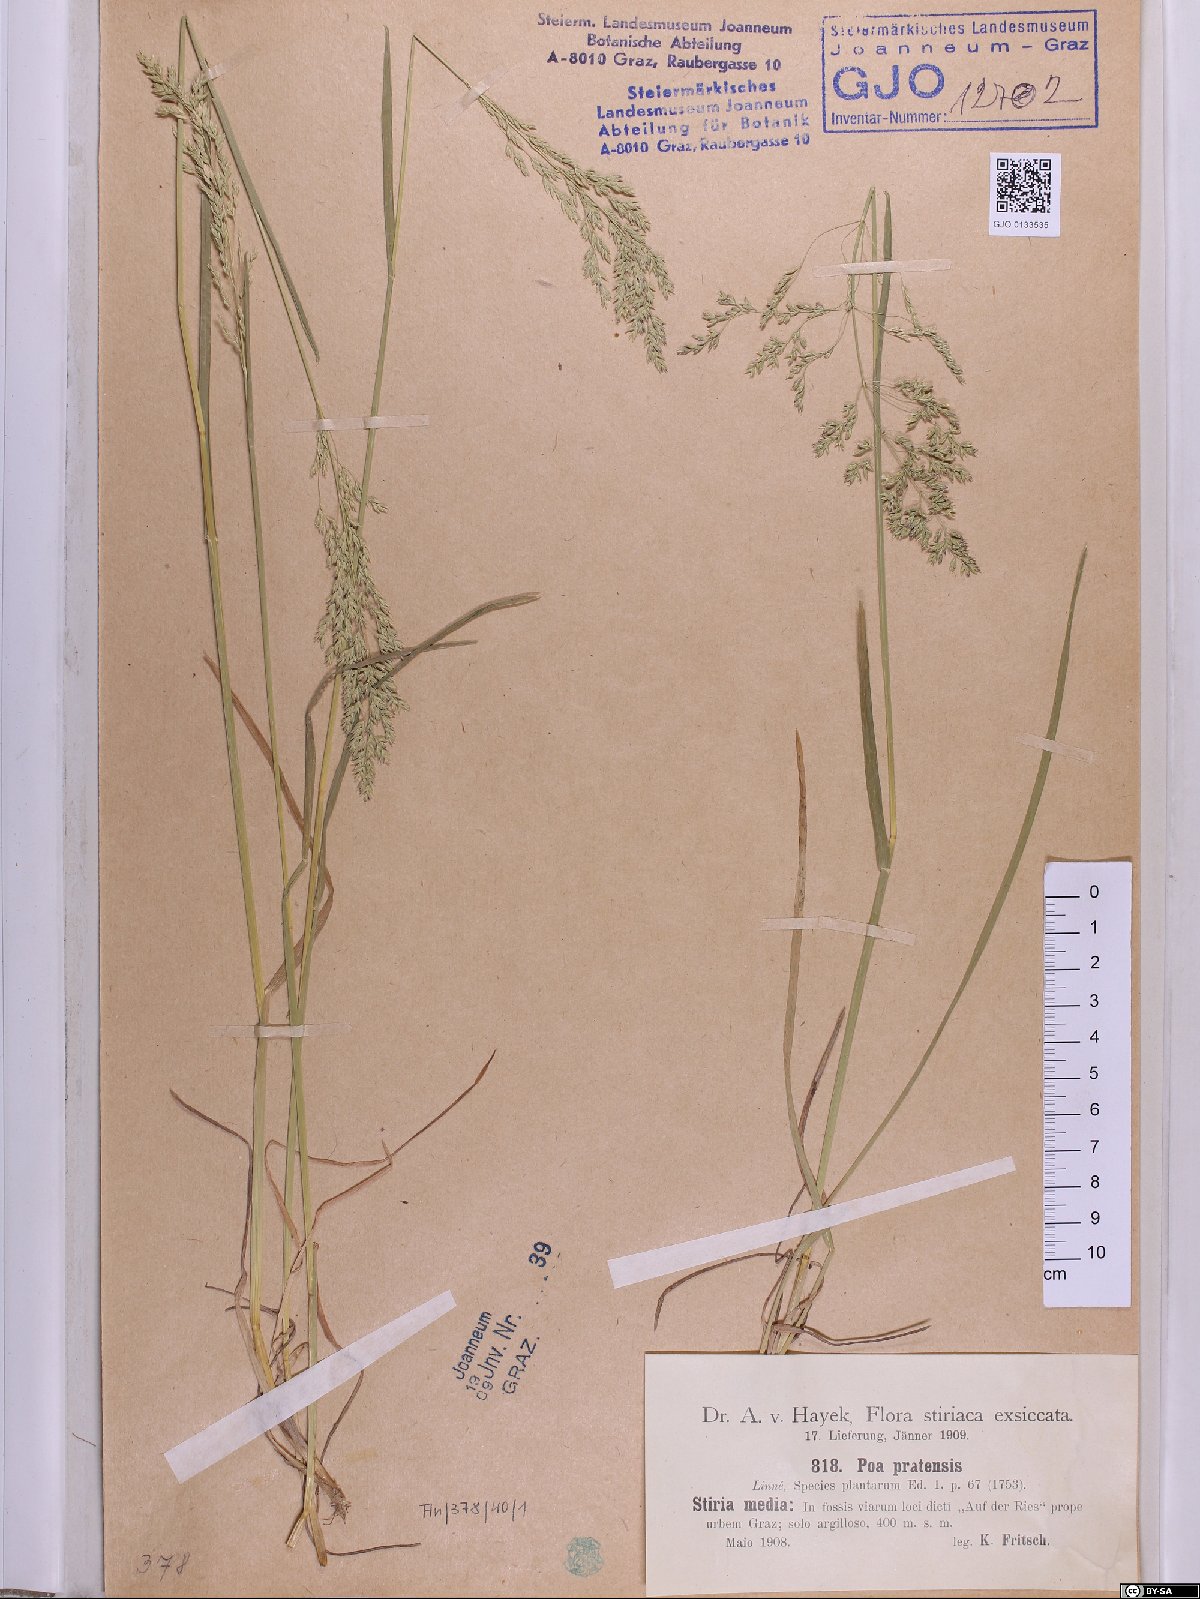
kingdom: Plantae
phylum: Tracheophyta
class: Liliopsida
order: Poales
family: Poaceae
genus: Poa
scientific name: Poa pratensis
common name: Kentucky bluegrass
